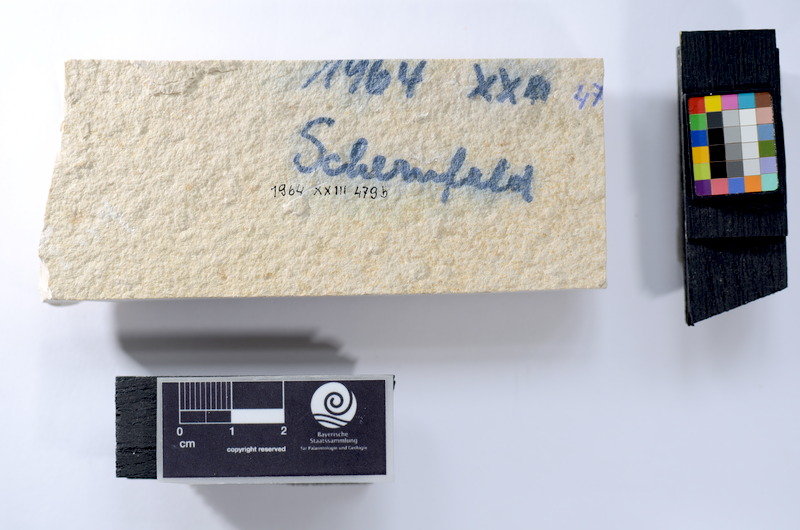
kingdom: Animalia
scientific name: Animalia
